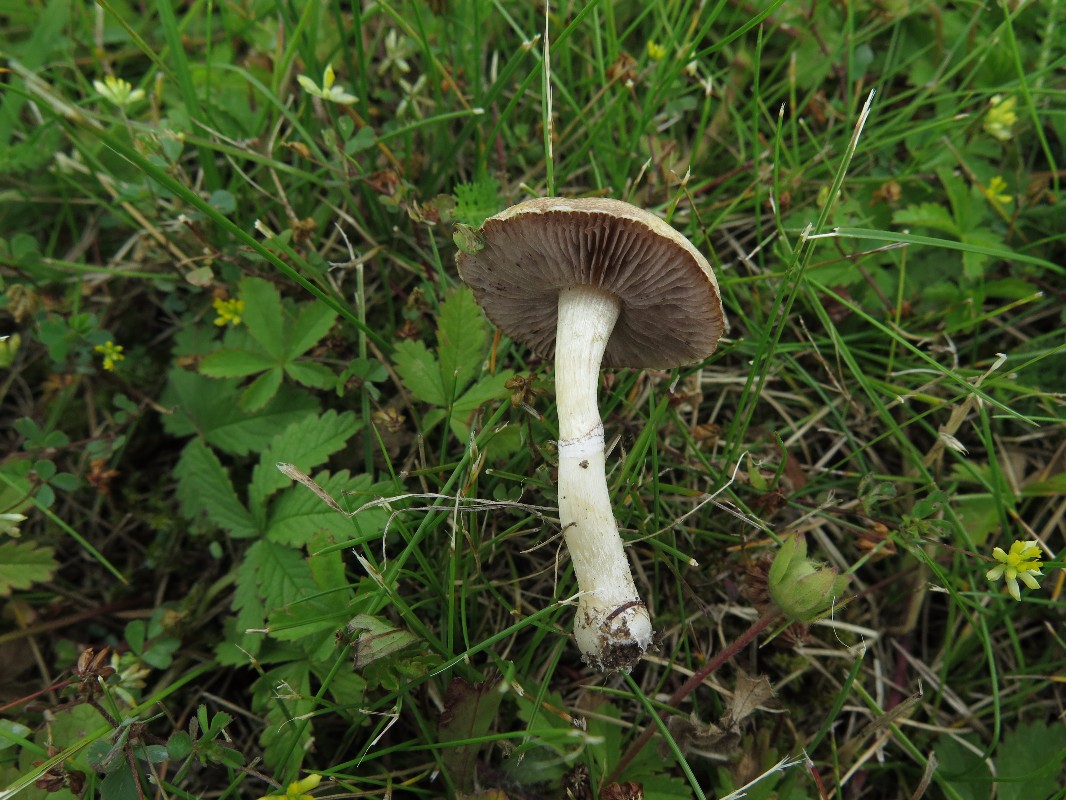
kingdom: Fungi
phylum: Basidiomycota
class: Agaricomycetes
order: Agaricales
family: Hymenogastraceae
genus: Psilocybe
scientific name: Psilocybe coronilla
